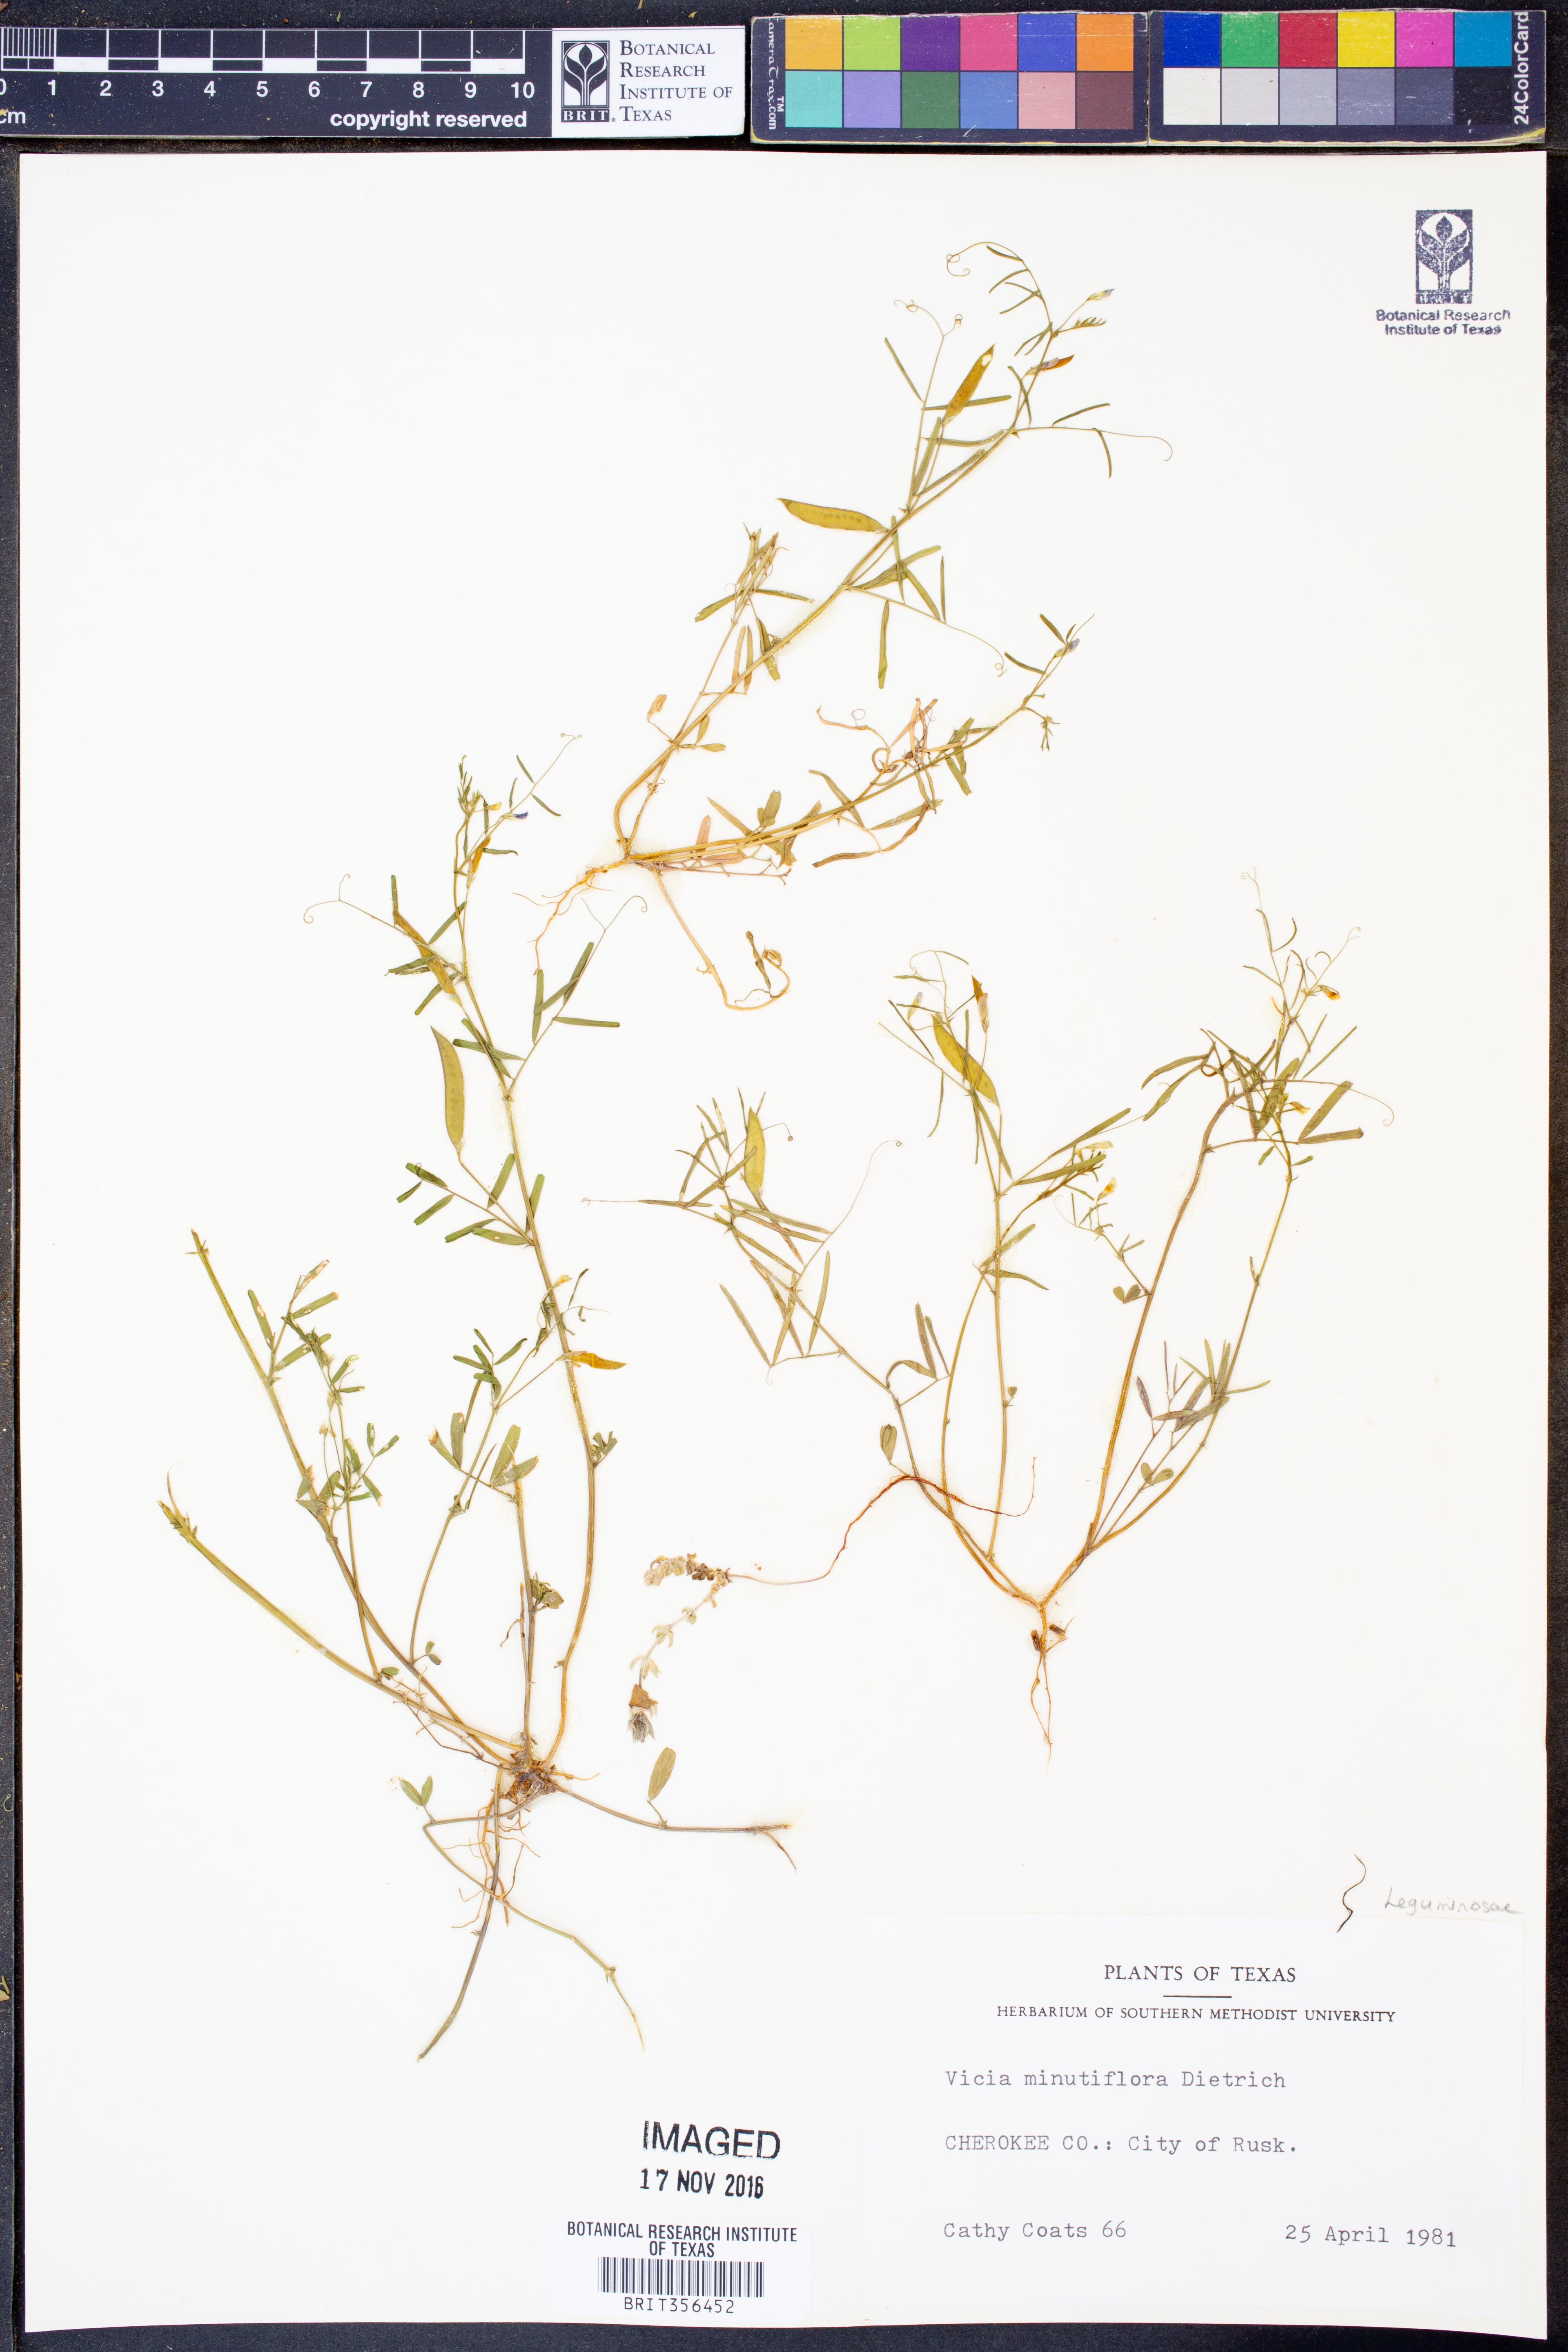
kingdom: Plantae
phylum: Tracheophyta
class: Magnoliopsida
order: Fabales
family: Fabaceae
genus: Vicia
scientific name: Vicia minutiflora
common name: Pygmy-flower vetch
